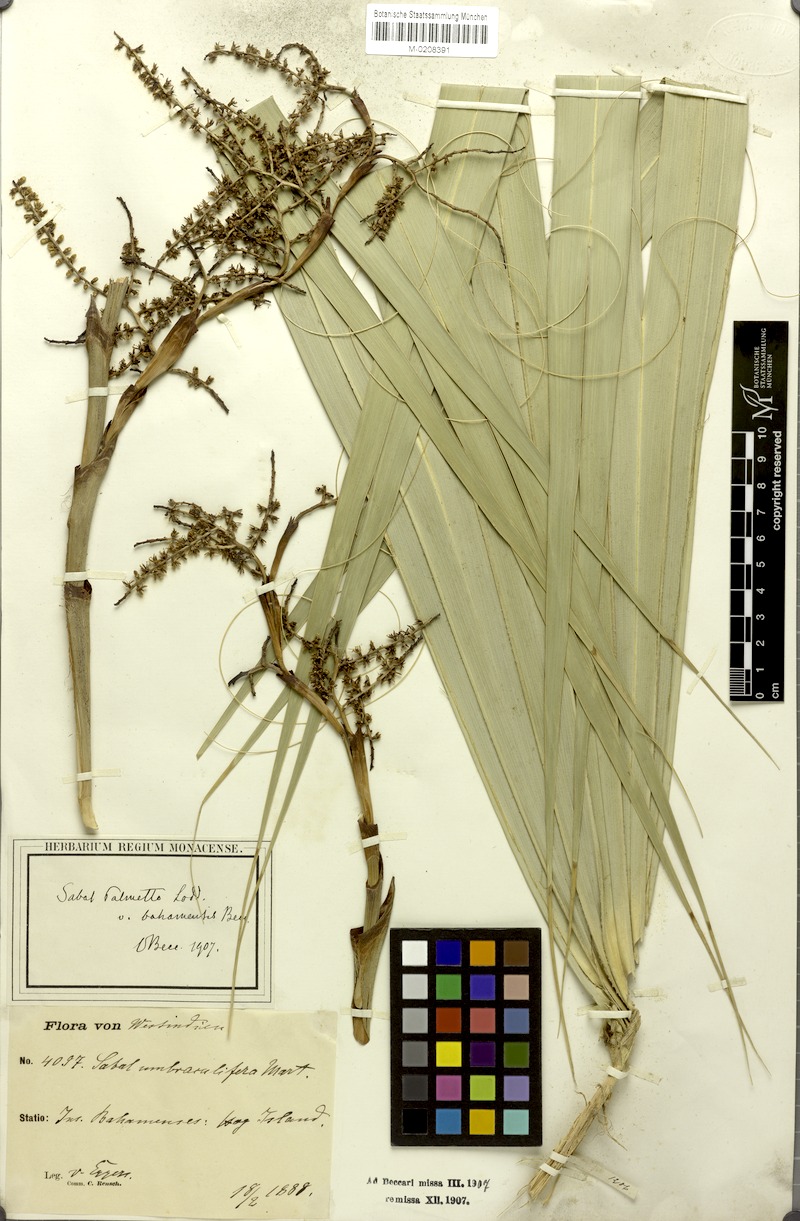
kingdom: Plantae
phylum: Tracheophyta
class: Liliopsida
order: Arecales
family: Arecaceae
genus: Sabal
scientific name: Sabal palmetto
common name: Blue palmetto
